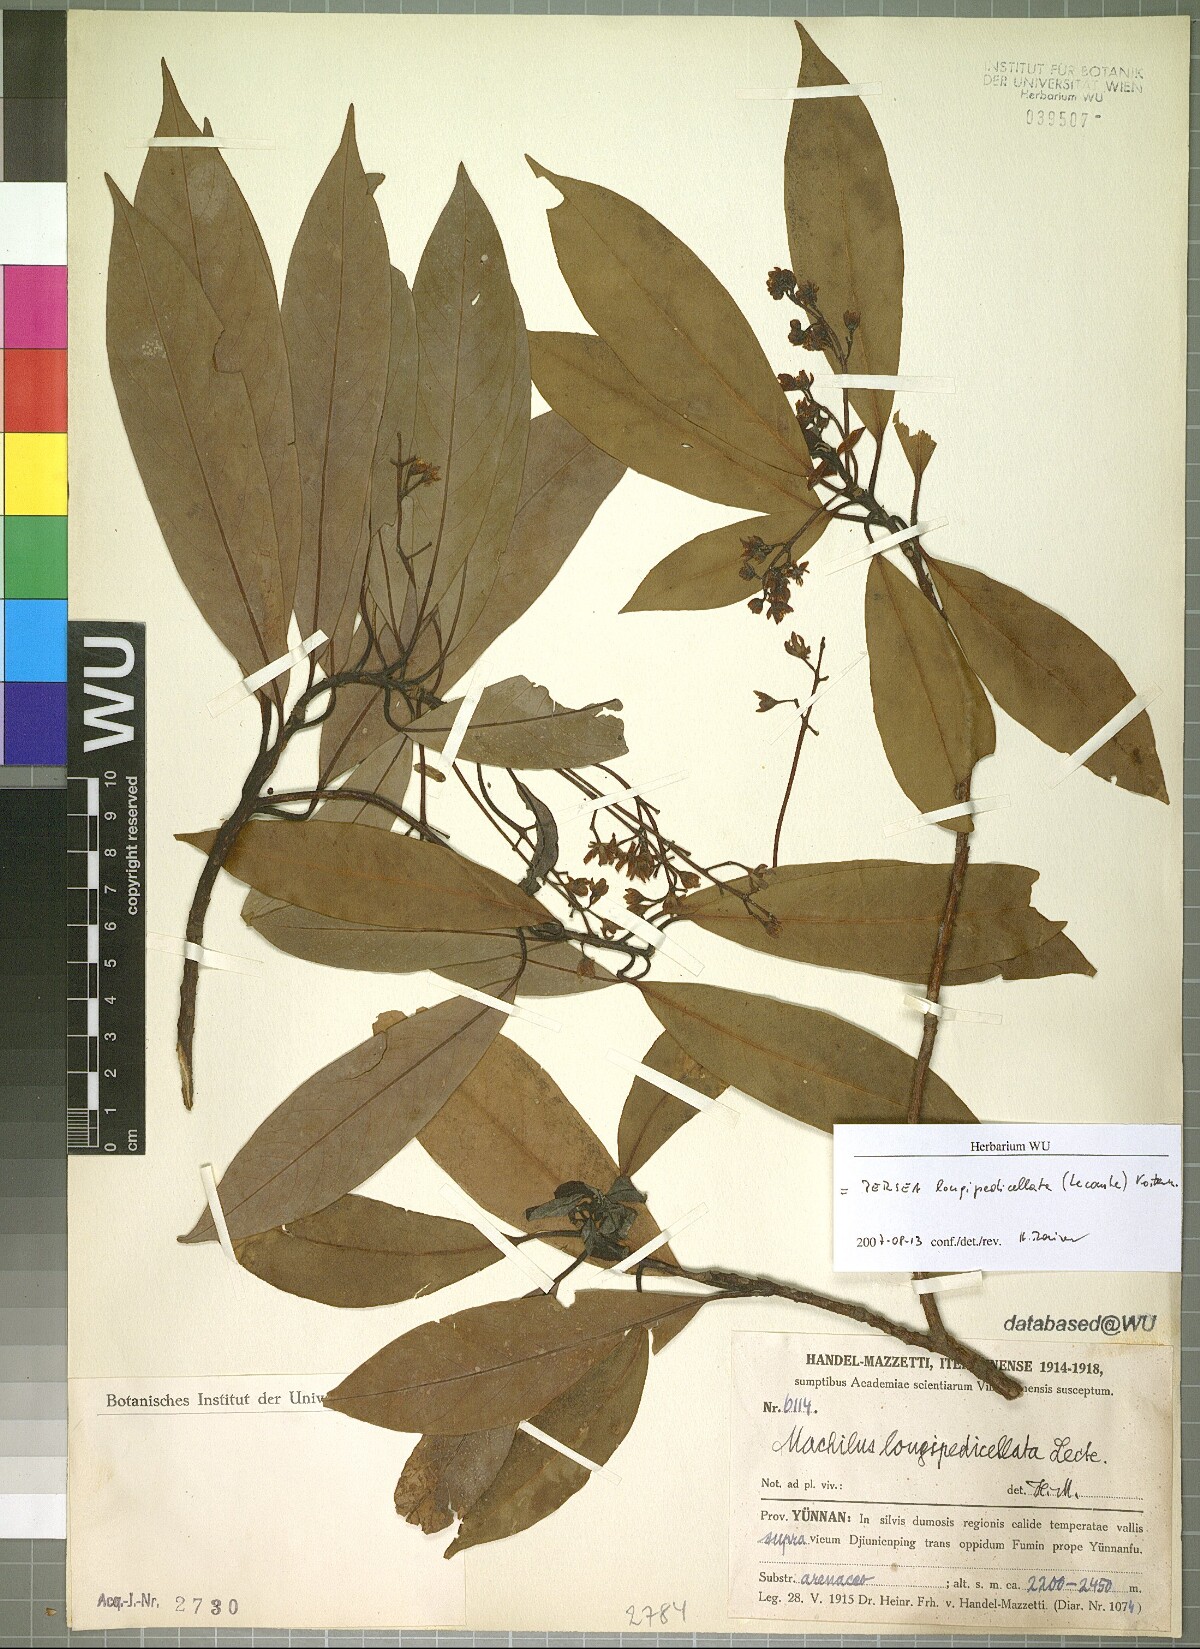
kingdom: Plantae
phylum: Tracheophyta
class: Magnoliopsida
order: Laurales
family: Lauraceae
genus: Machilus
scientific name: Machilus yunnanensis
